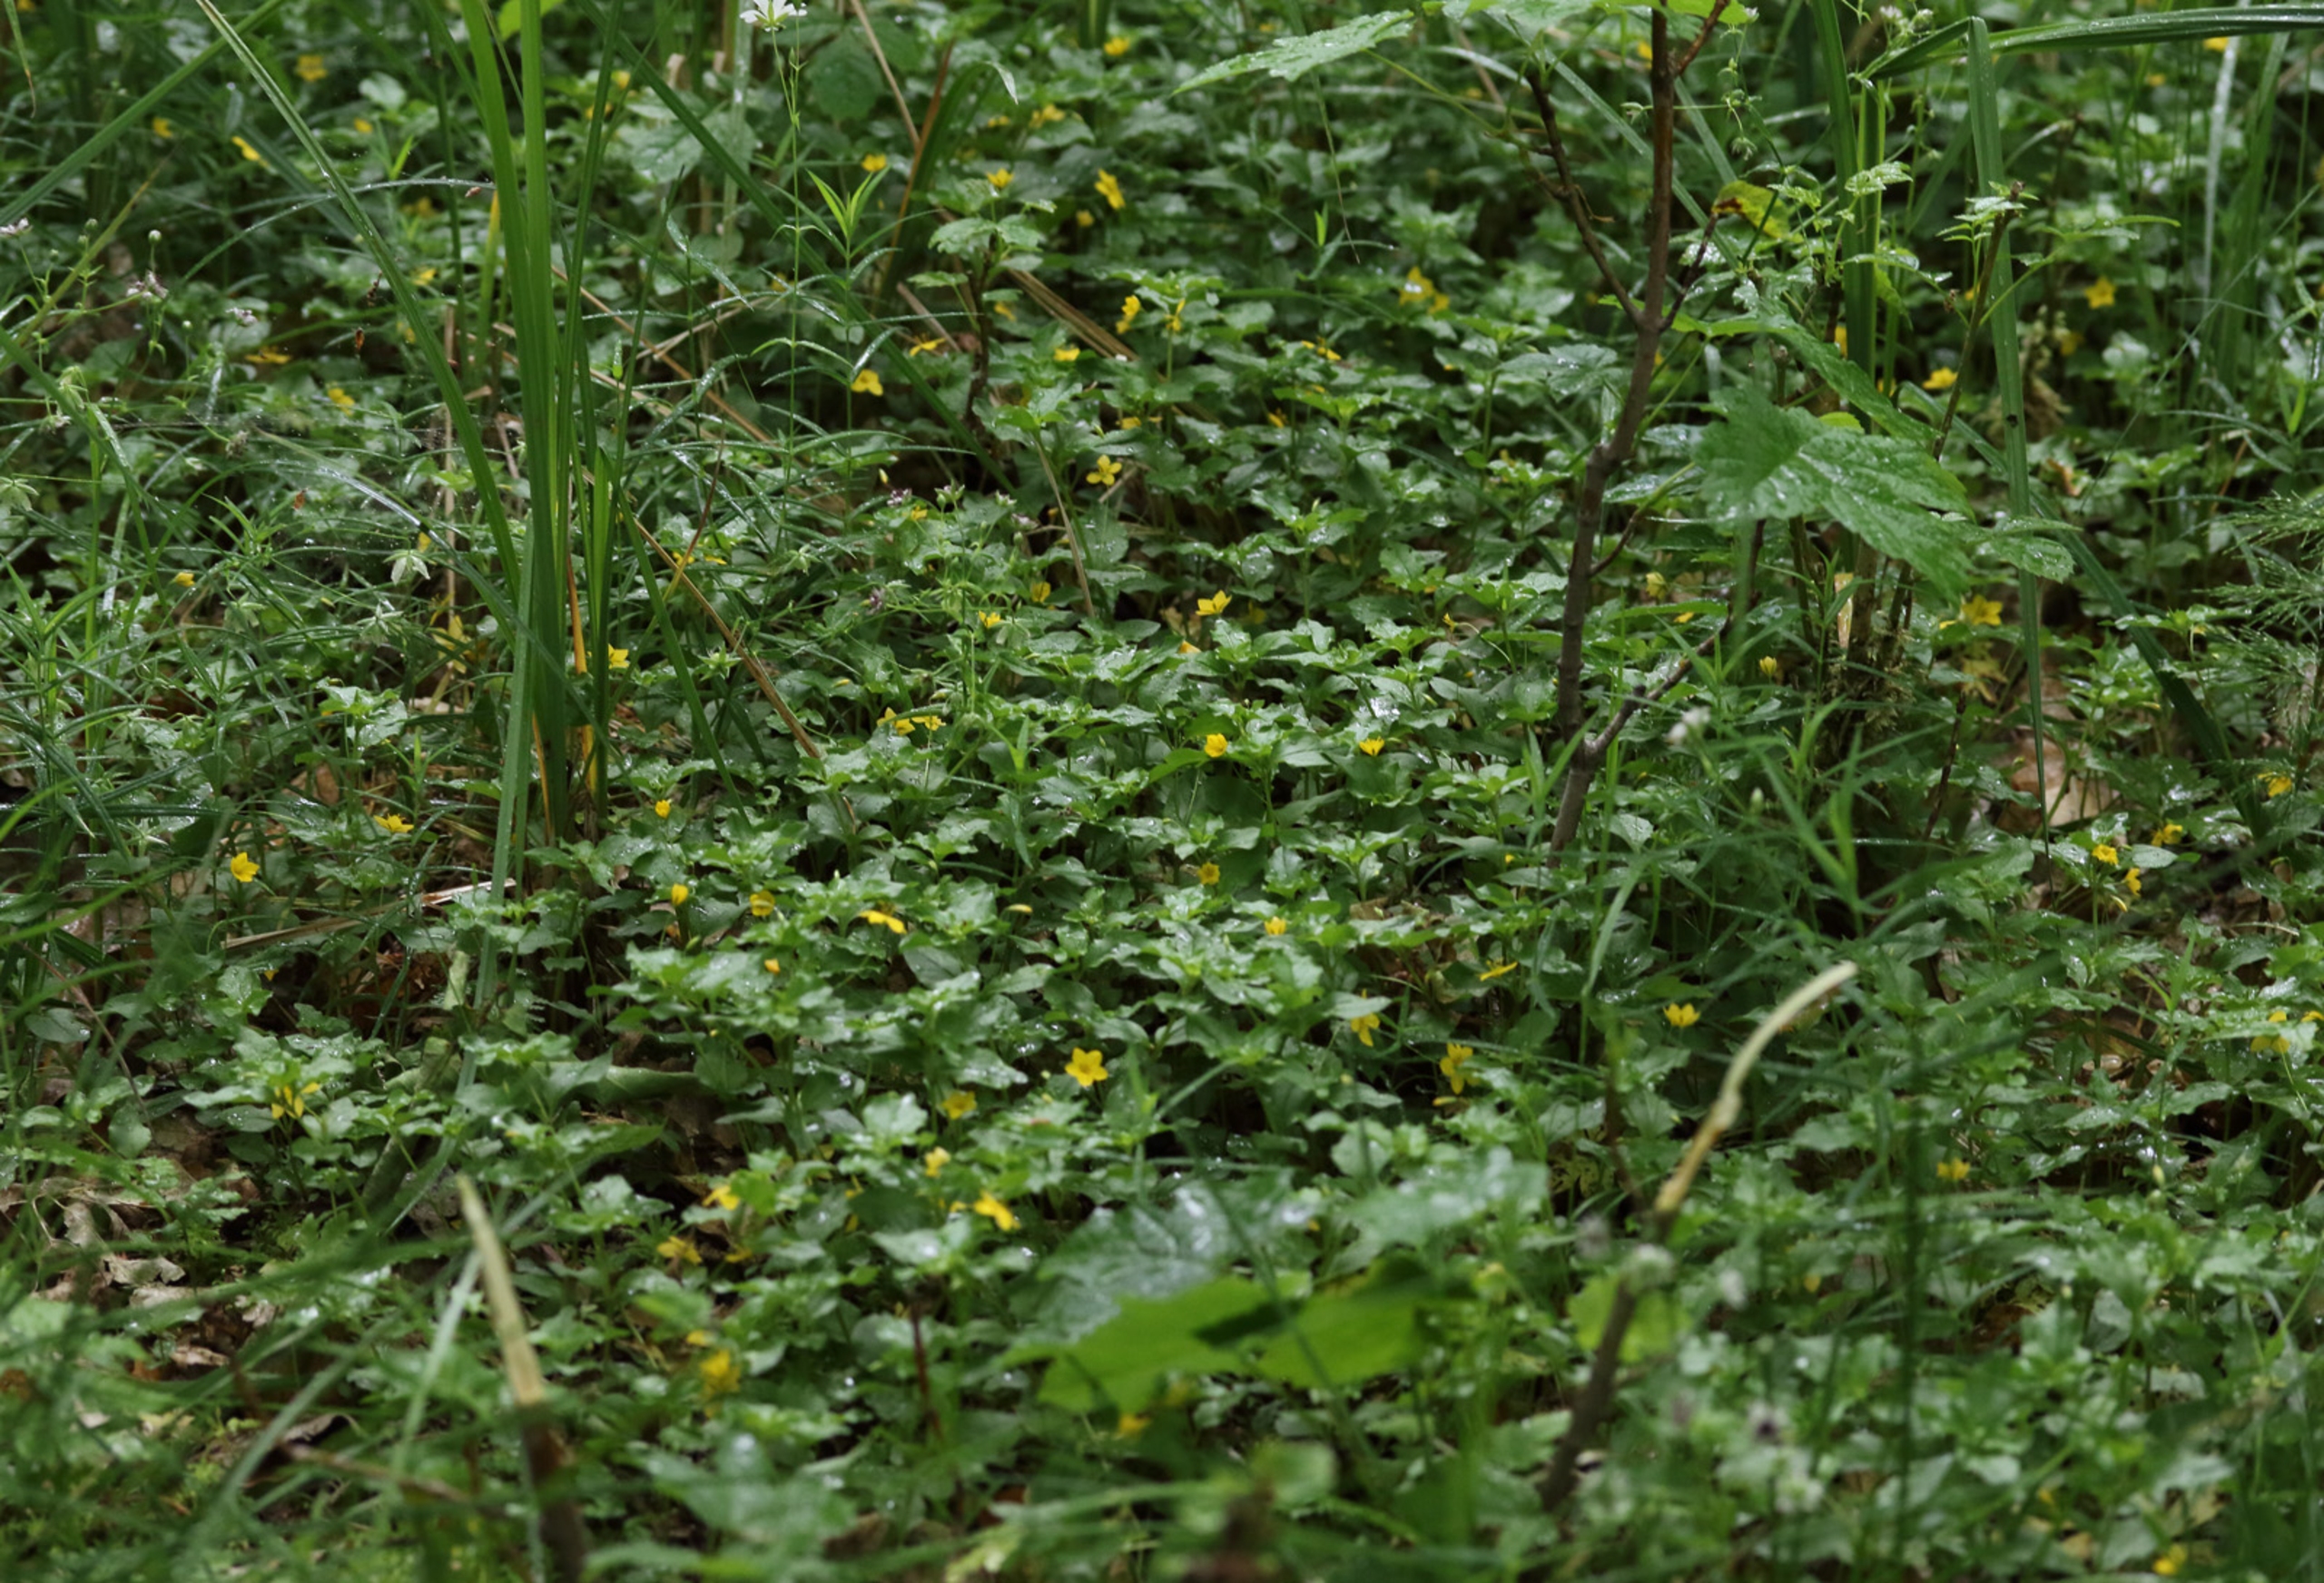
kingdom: Plantae
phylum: Tracheophyta
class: Magnoliopsida
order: Ericales
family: Primulaceae
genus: Lysimachia
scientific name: Lysimachia nemorum
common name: Lund-fredløs
